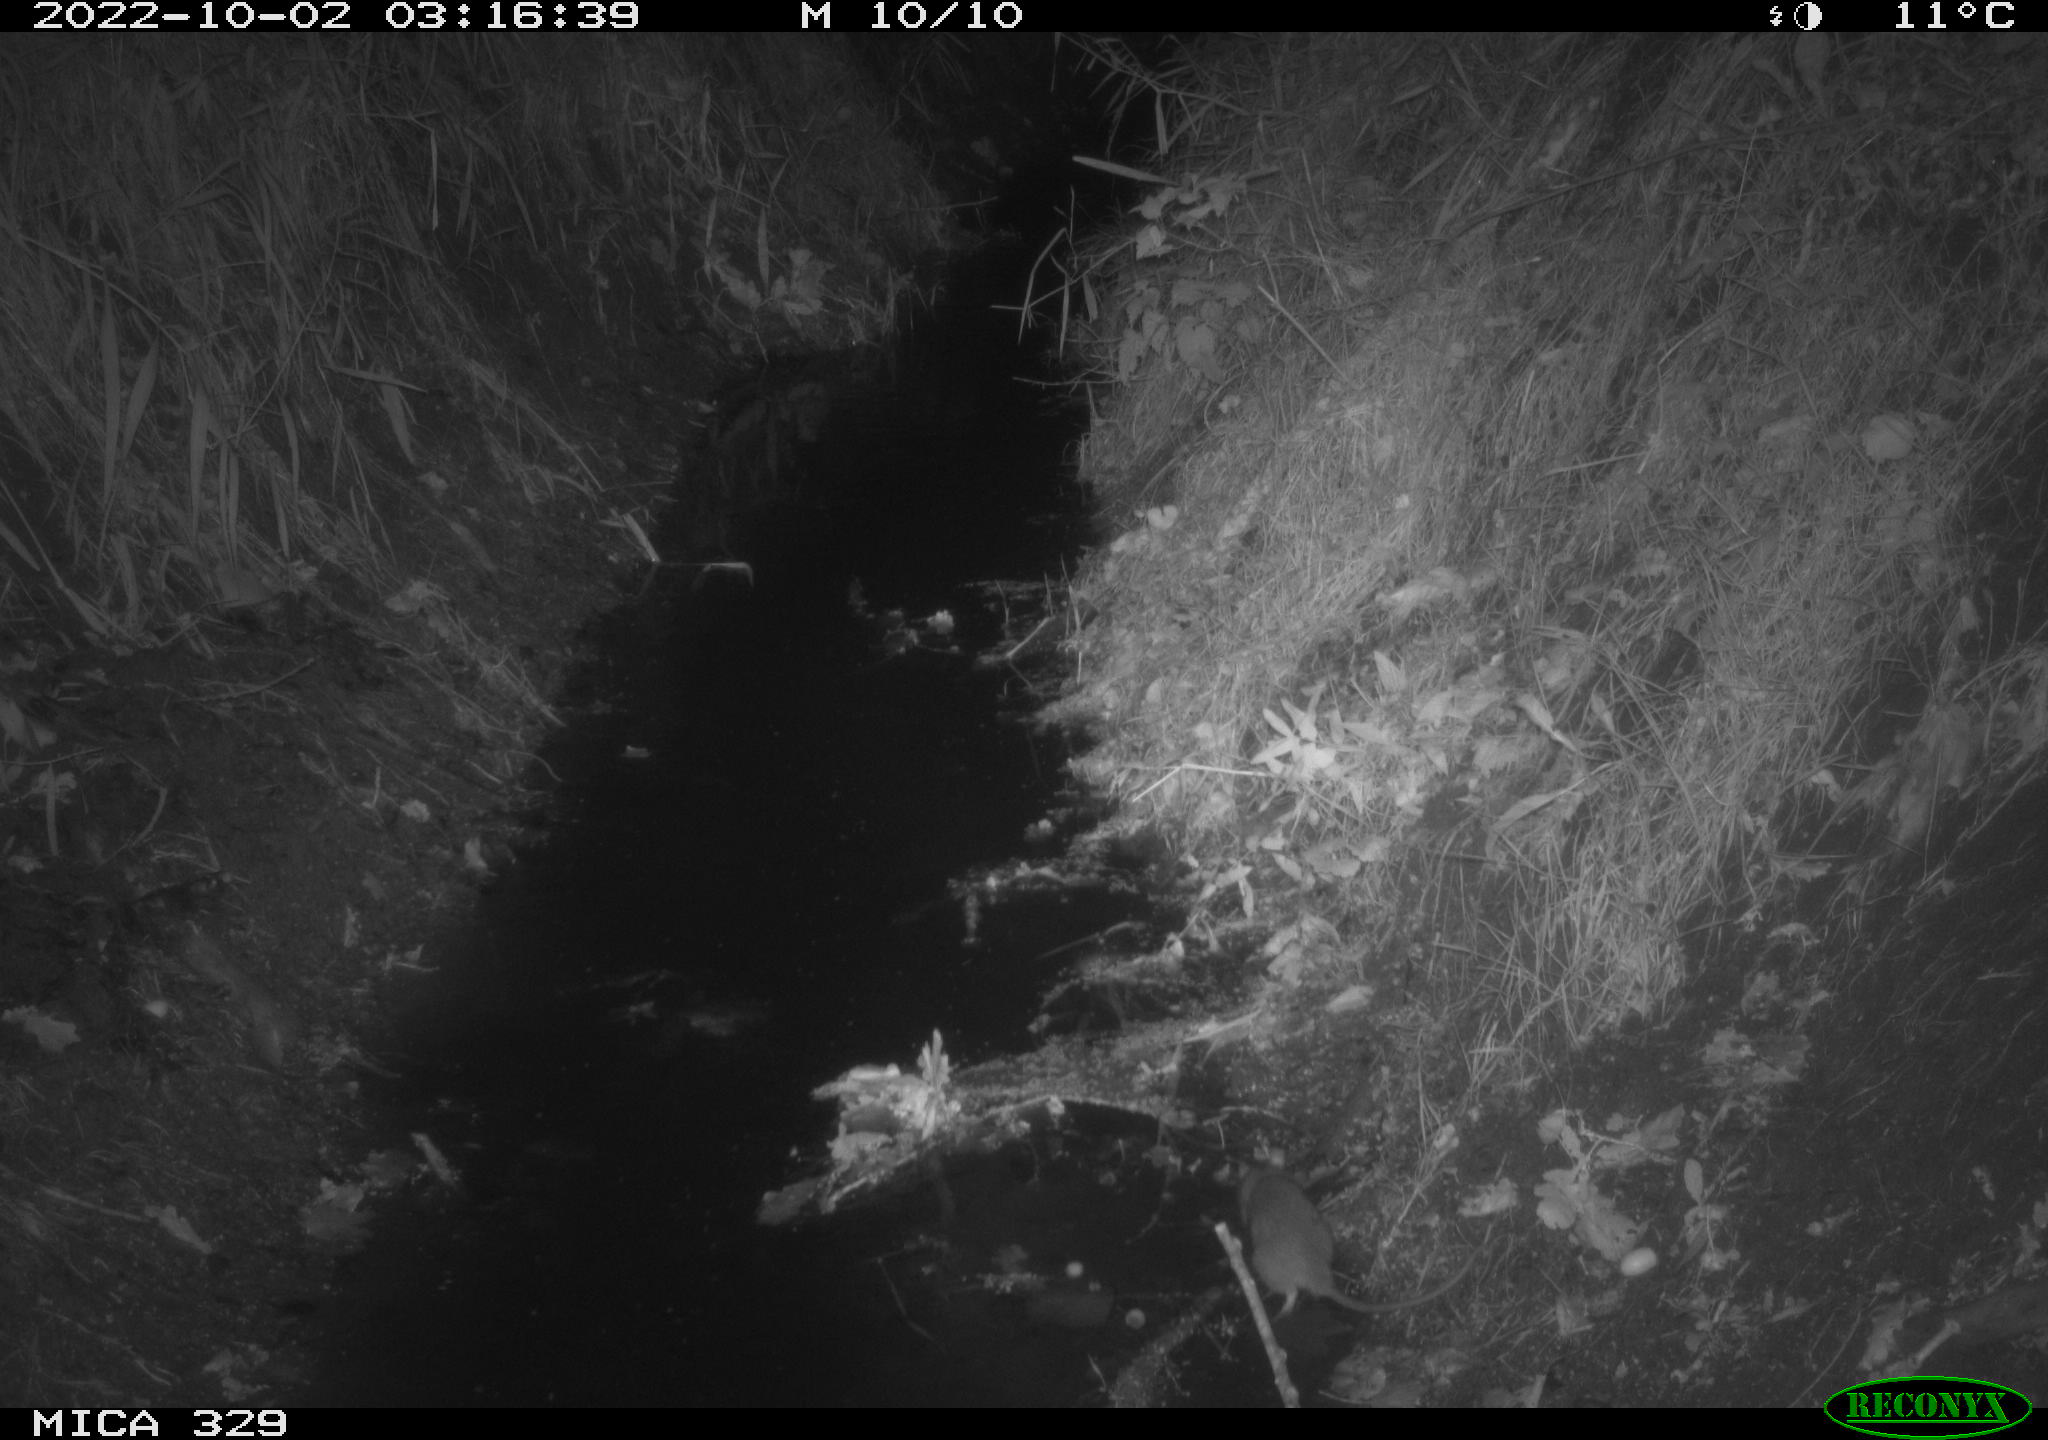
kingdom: Animalia
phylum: Chordata
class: Mammalia
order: Rodentia
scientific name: Rodentia
